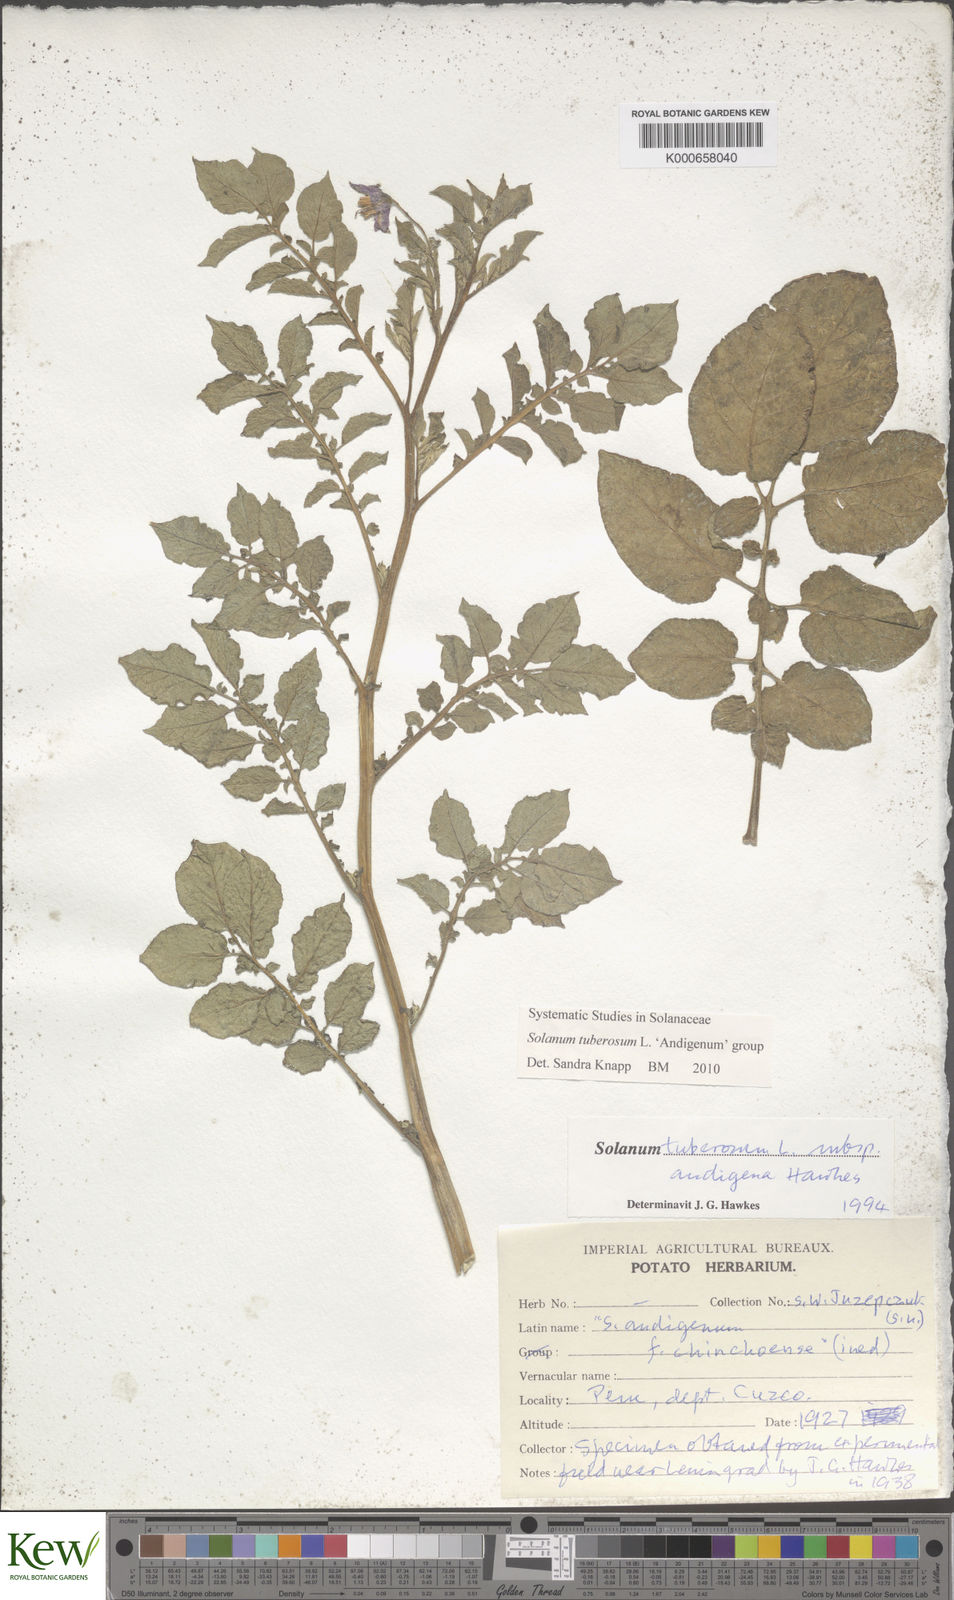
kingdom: Plantae
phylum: Tracheophyta
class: Magnoliopsida
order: Solanales
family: Solanaceae
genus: Solanum
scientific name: Solanum tuberosum
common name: Potato
